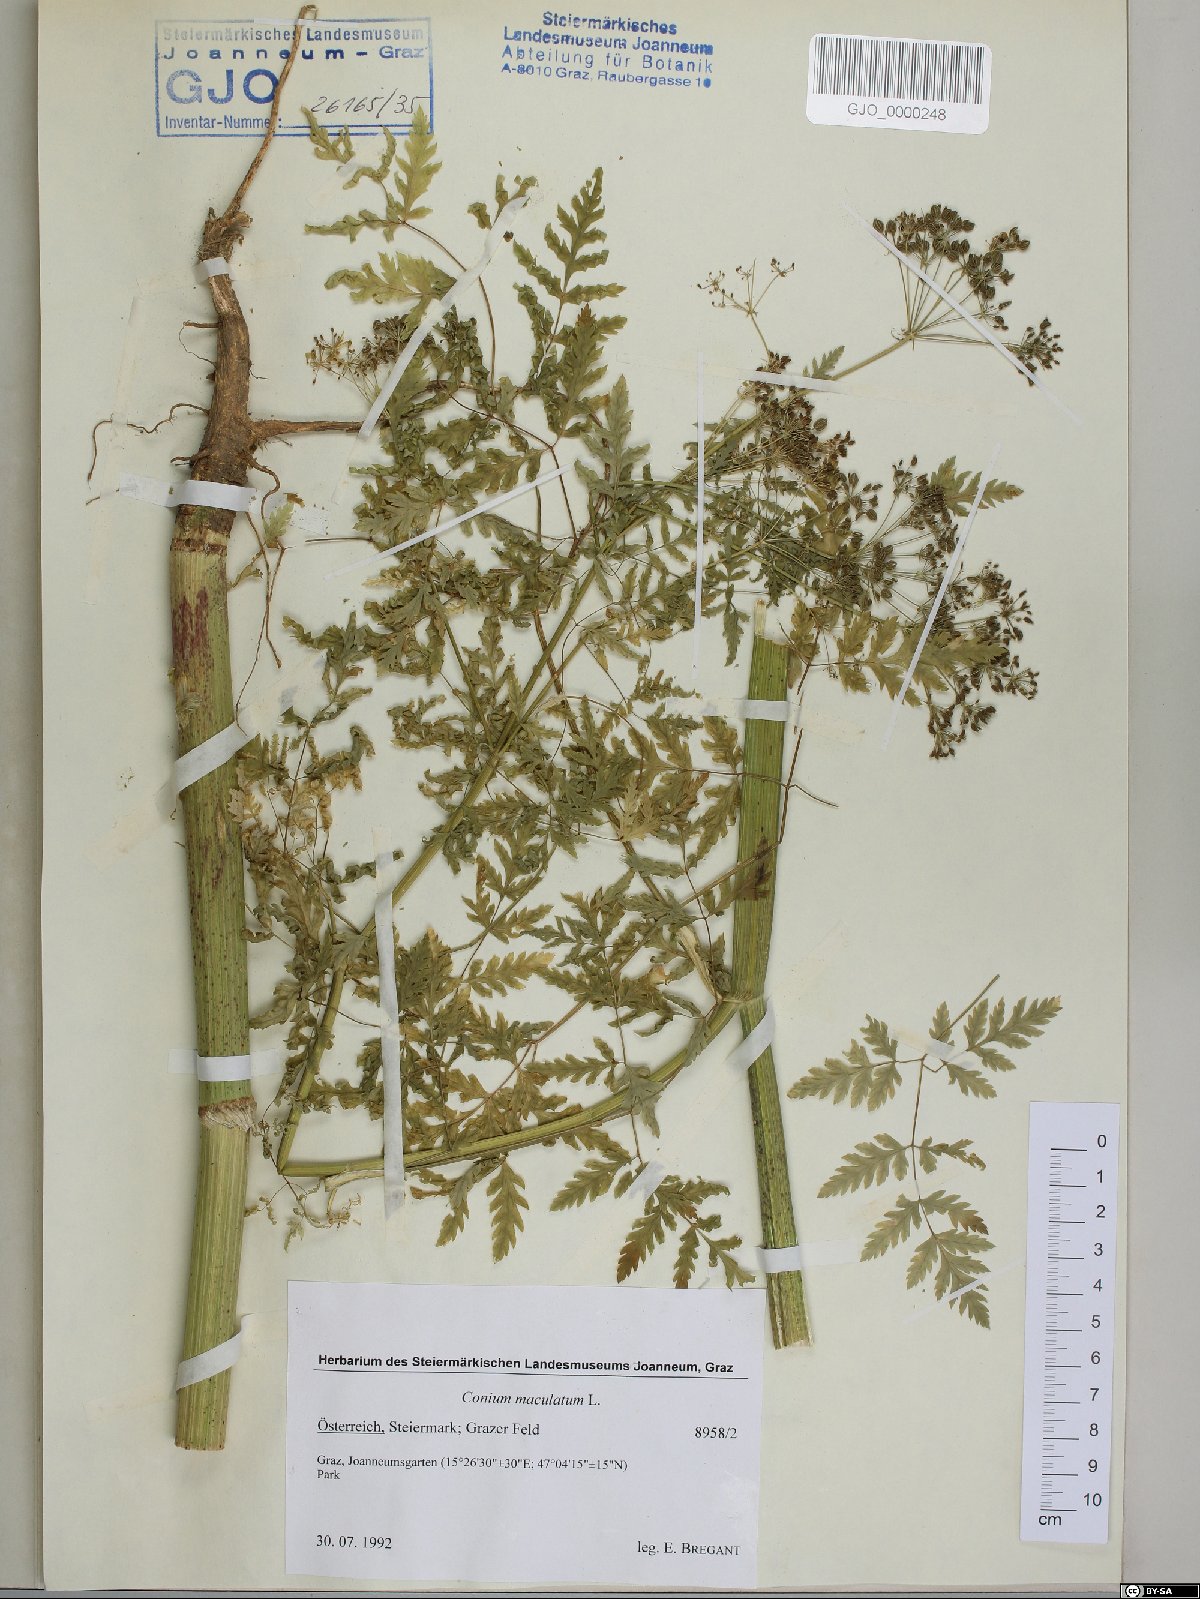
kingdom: Plantae
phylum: Tracheophyta
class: Magnoliopsida
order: Apiales
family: Apiaceae
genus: Conium
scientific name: Conium maculatum
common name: Hemlock
